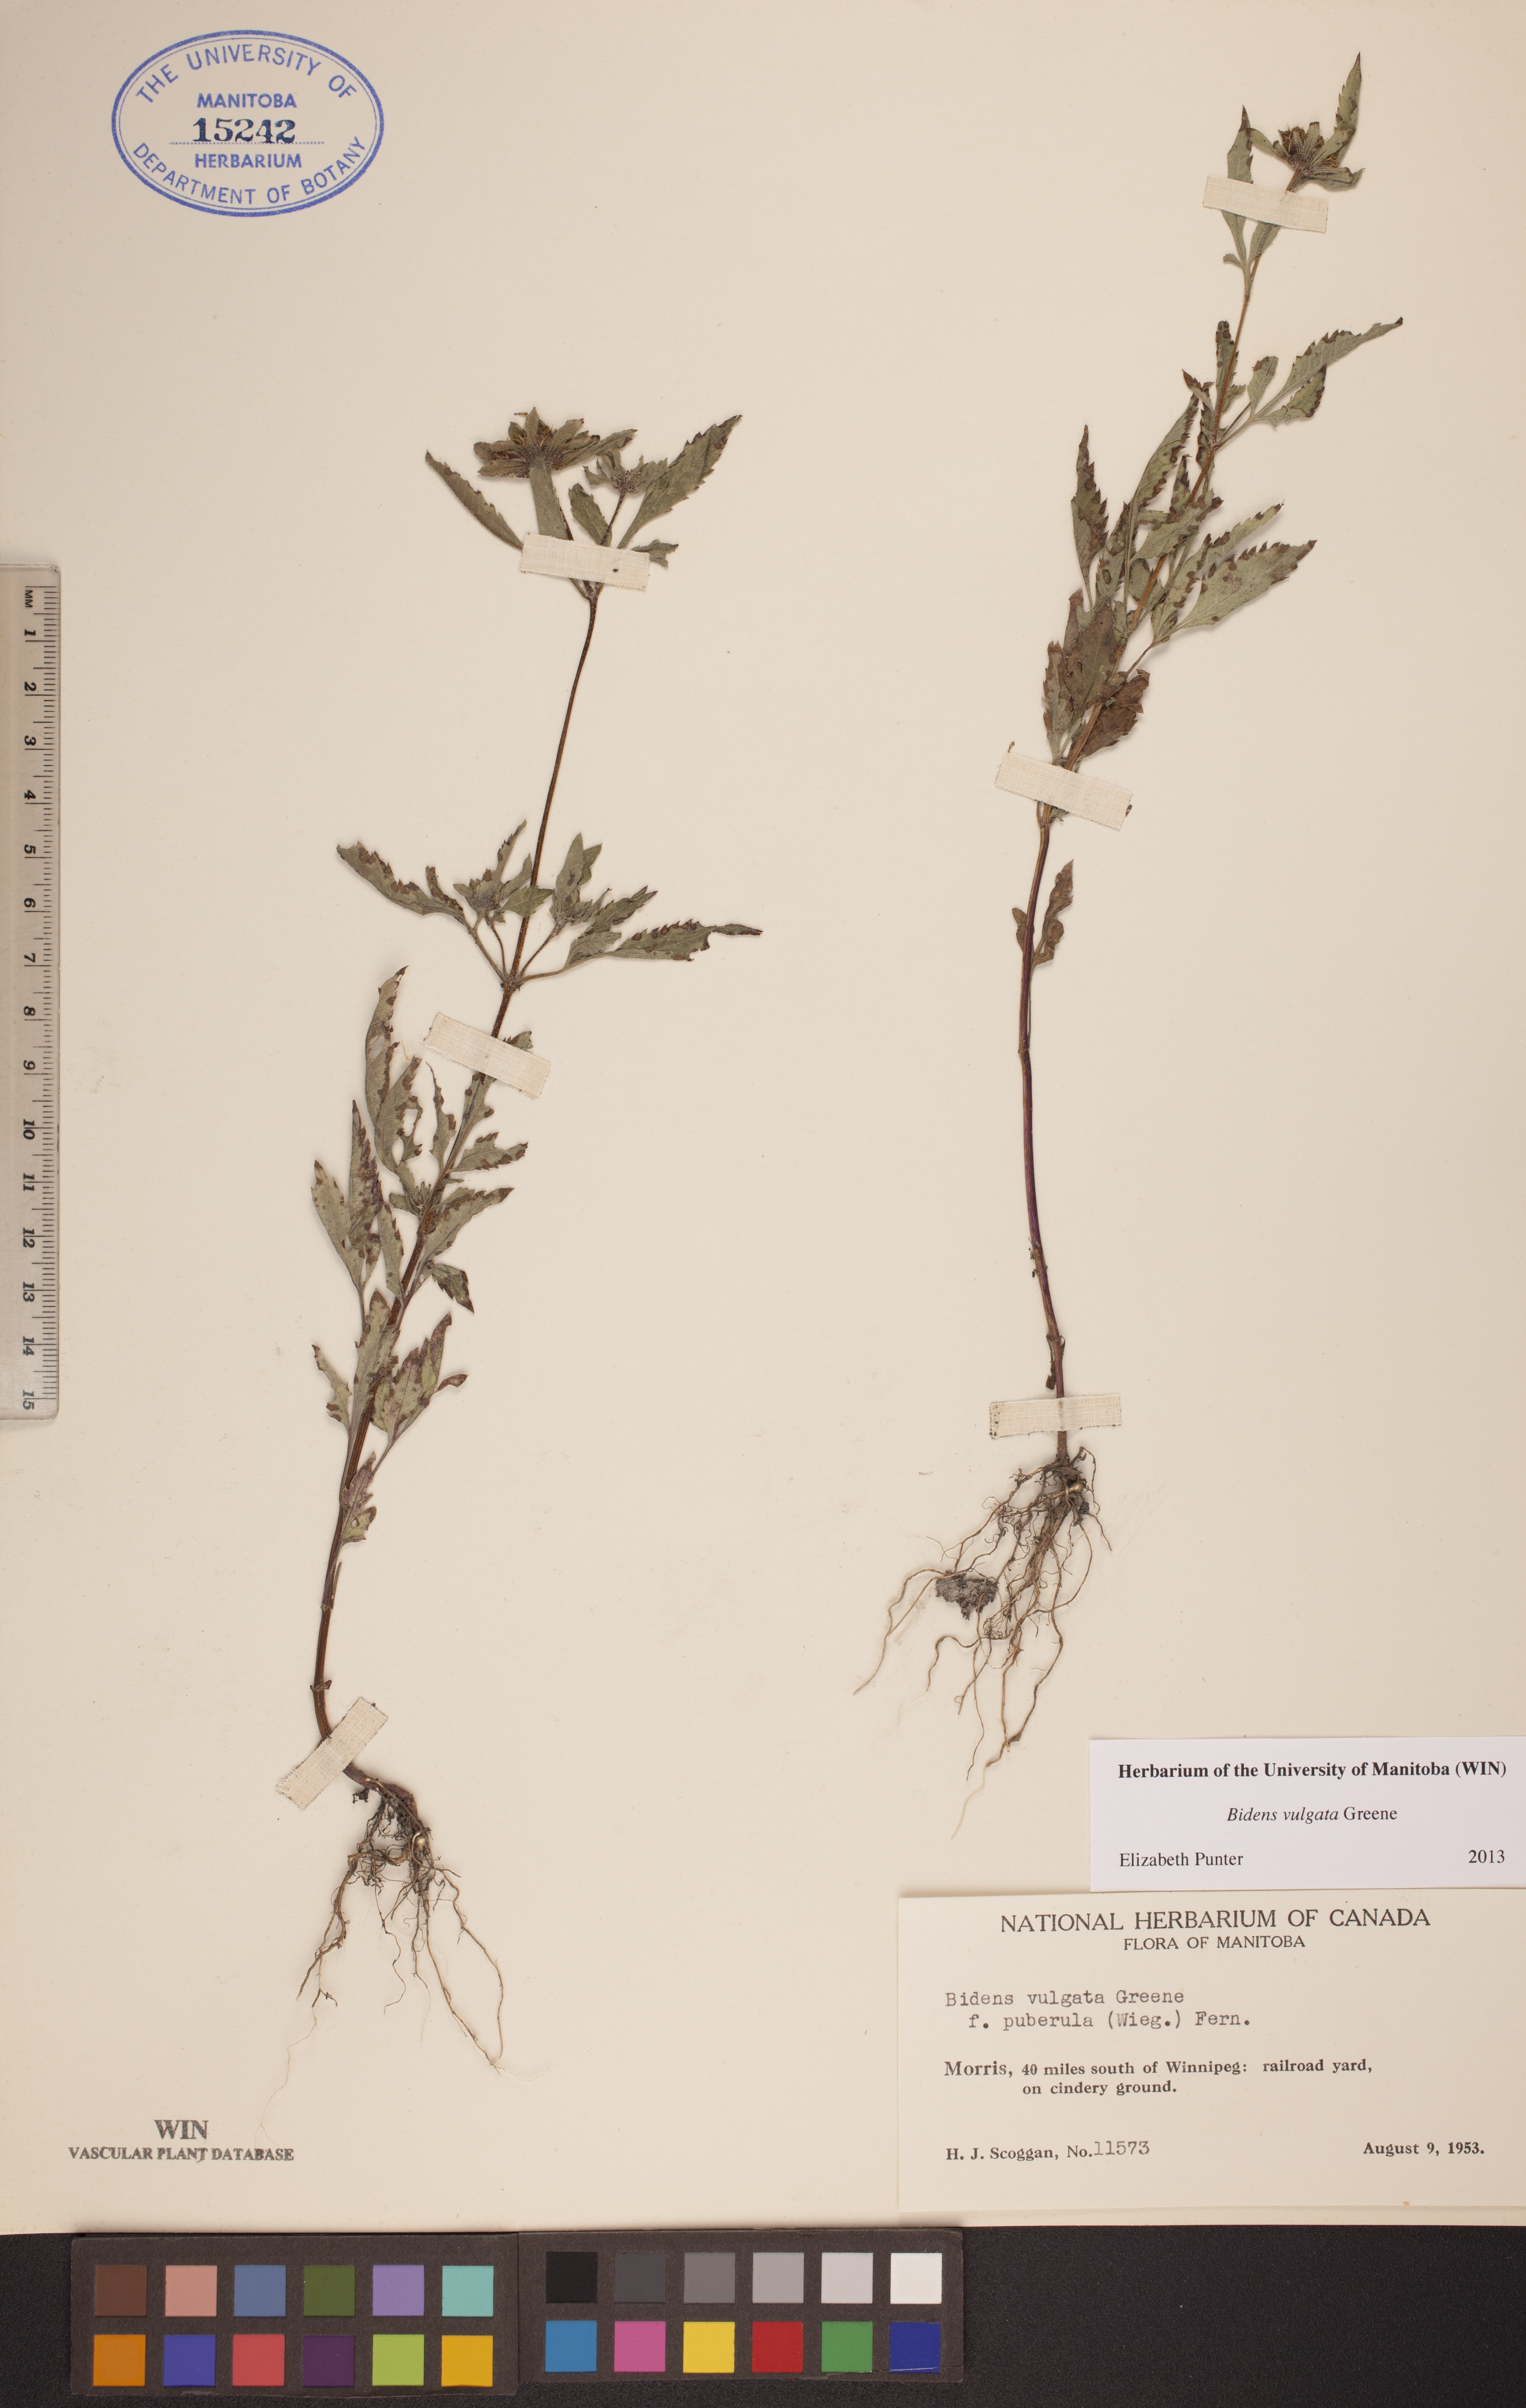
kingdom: Plantae
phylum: Tracheophyta
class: Magnoliopsida
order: Asterales
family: Asteraceae
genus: Bidens
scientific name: Bidens vulgata
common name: Tall beggarticks
